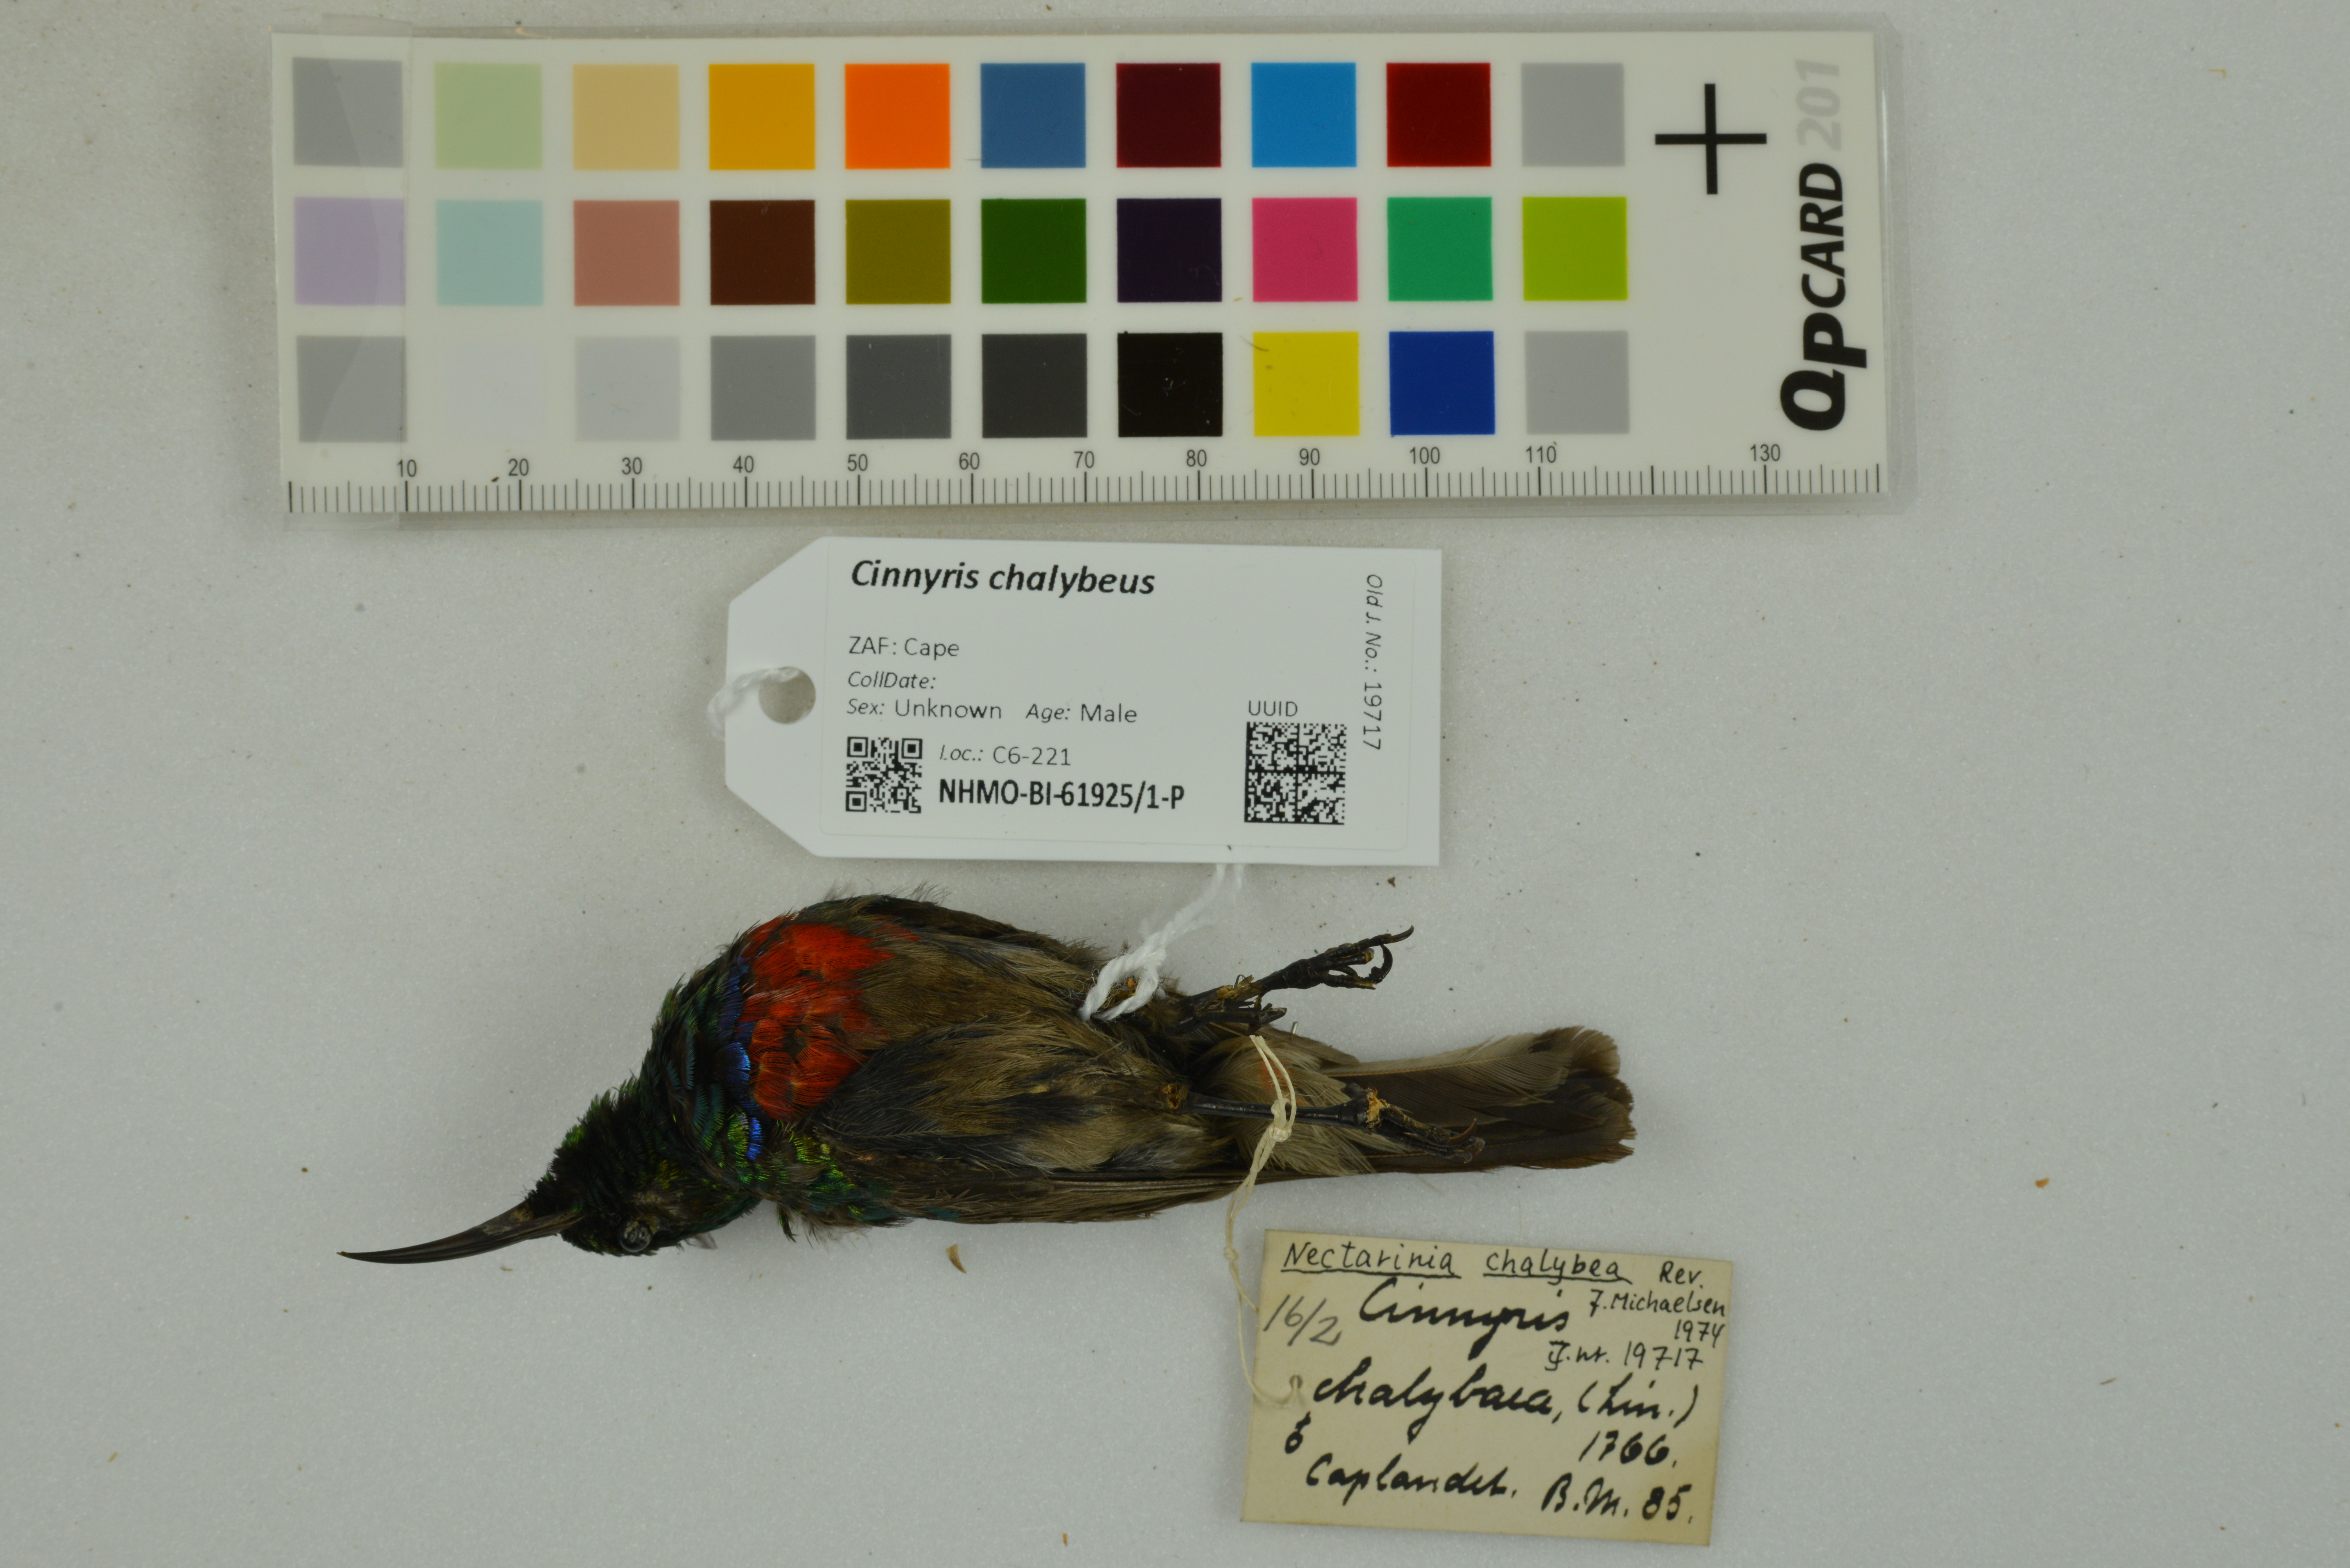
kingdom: Animalia
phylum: Chordata
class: Aves
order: Passeriformes
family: Nectariniidae
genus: Cinnyris
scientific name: Cinnyris chalybeus
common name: Southern double-collared sunbird
